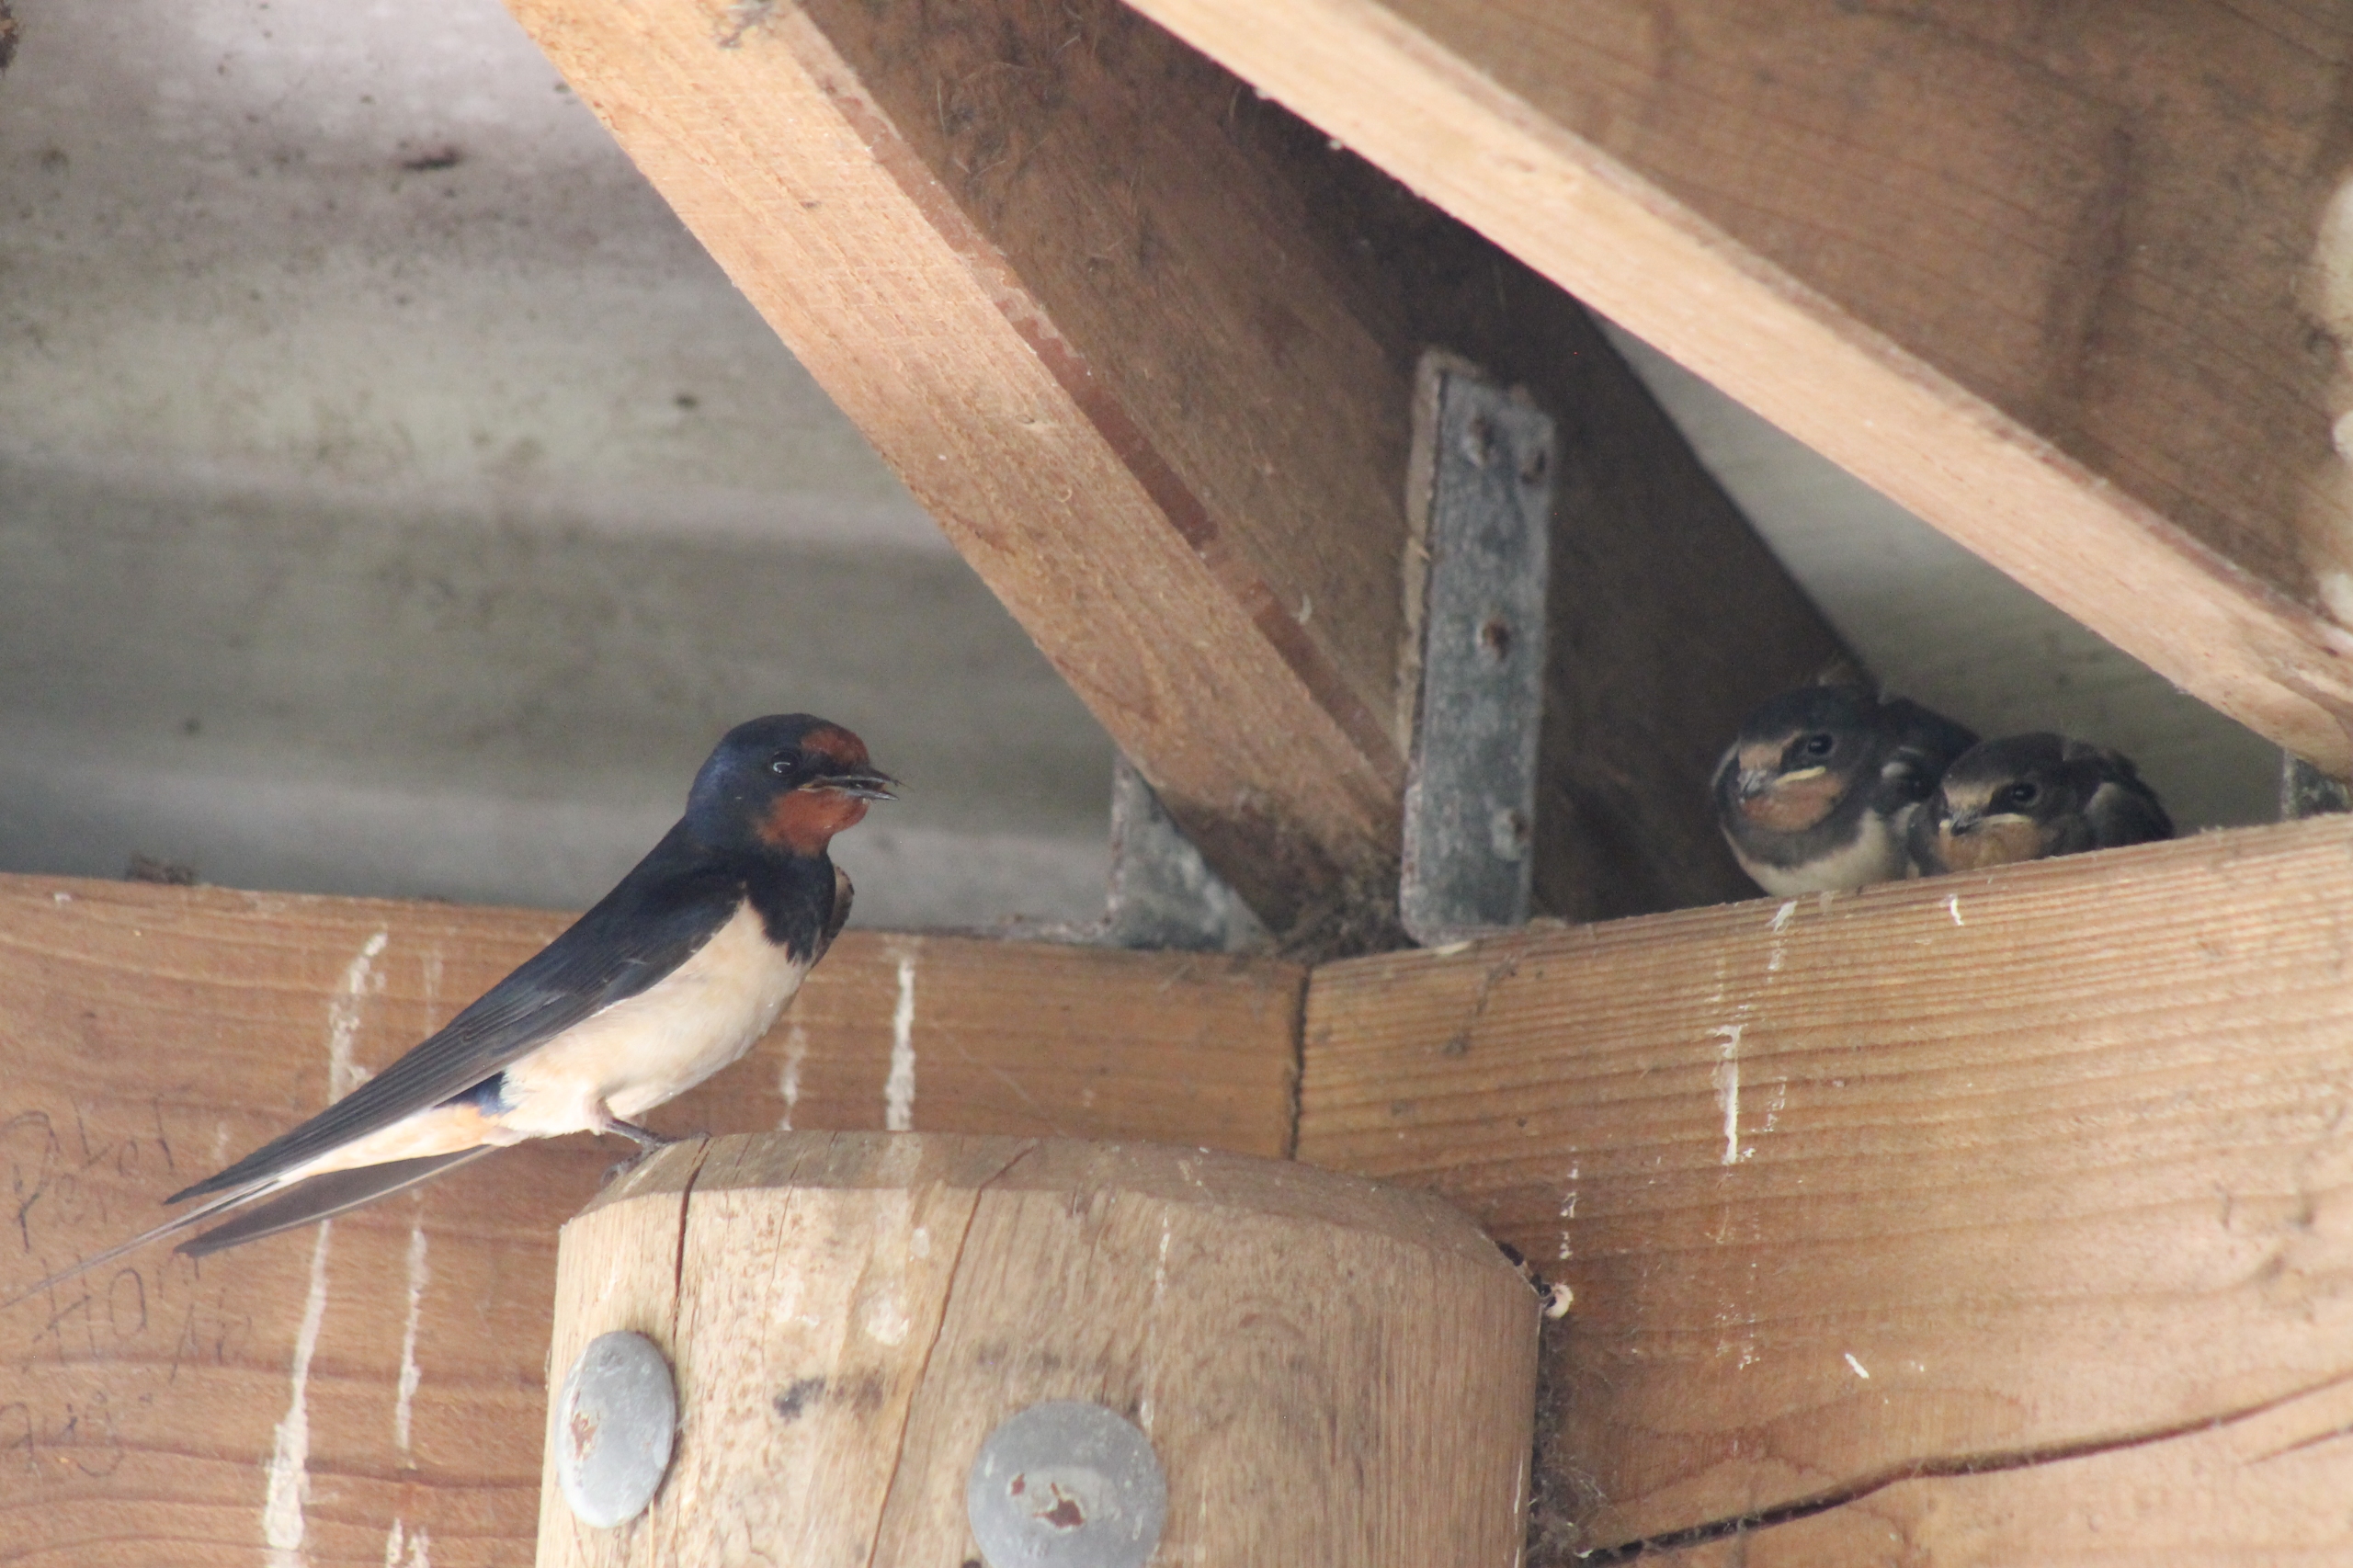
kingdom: Animalia
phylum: Chordata
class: Aves
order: Passeriformes
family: Hirundinidae
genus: Hirundo
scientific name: Hirundo rustica
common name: Landsvale
